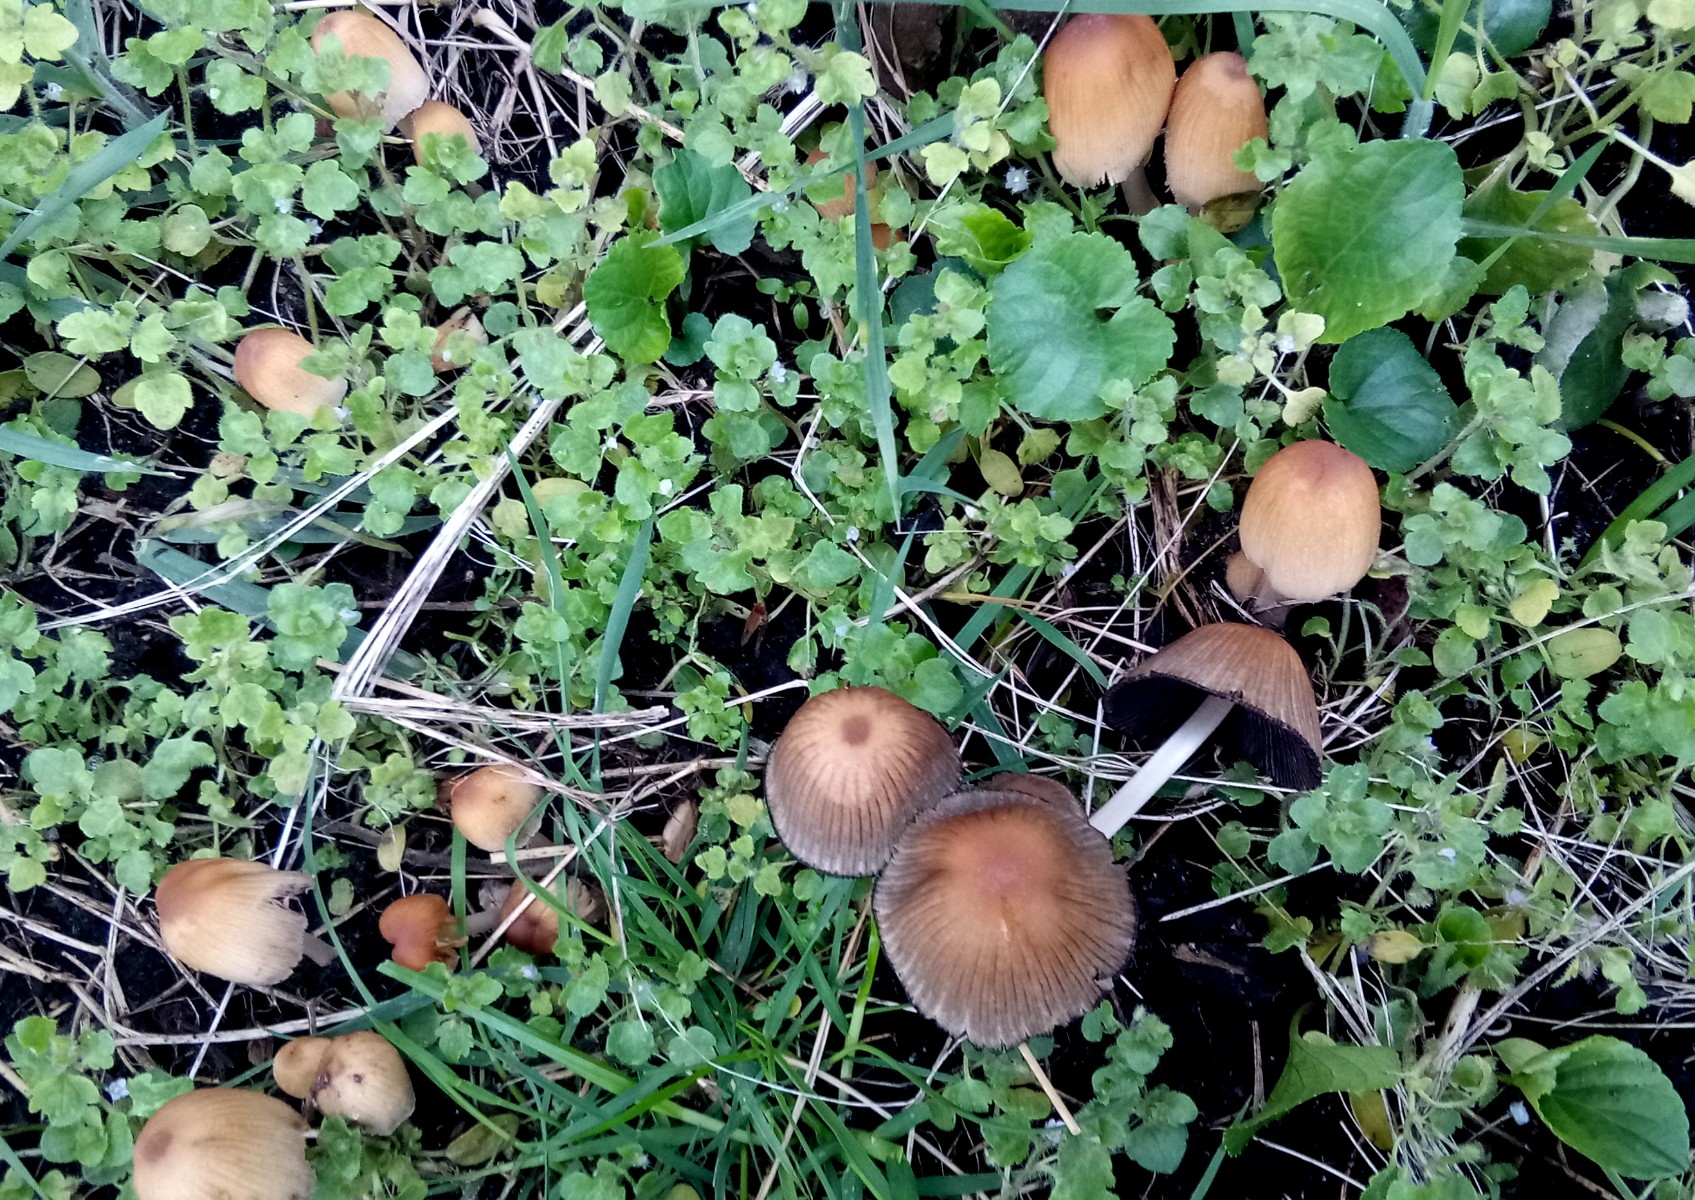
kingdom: Fungi
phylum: Basidiomycota
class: Agaricomycetes
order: Agaricales
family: Psathyrellaceae
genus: Coprinellus
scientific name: Coprinellus micaceus
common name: glimmer-blækhat
